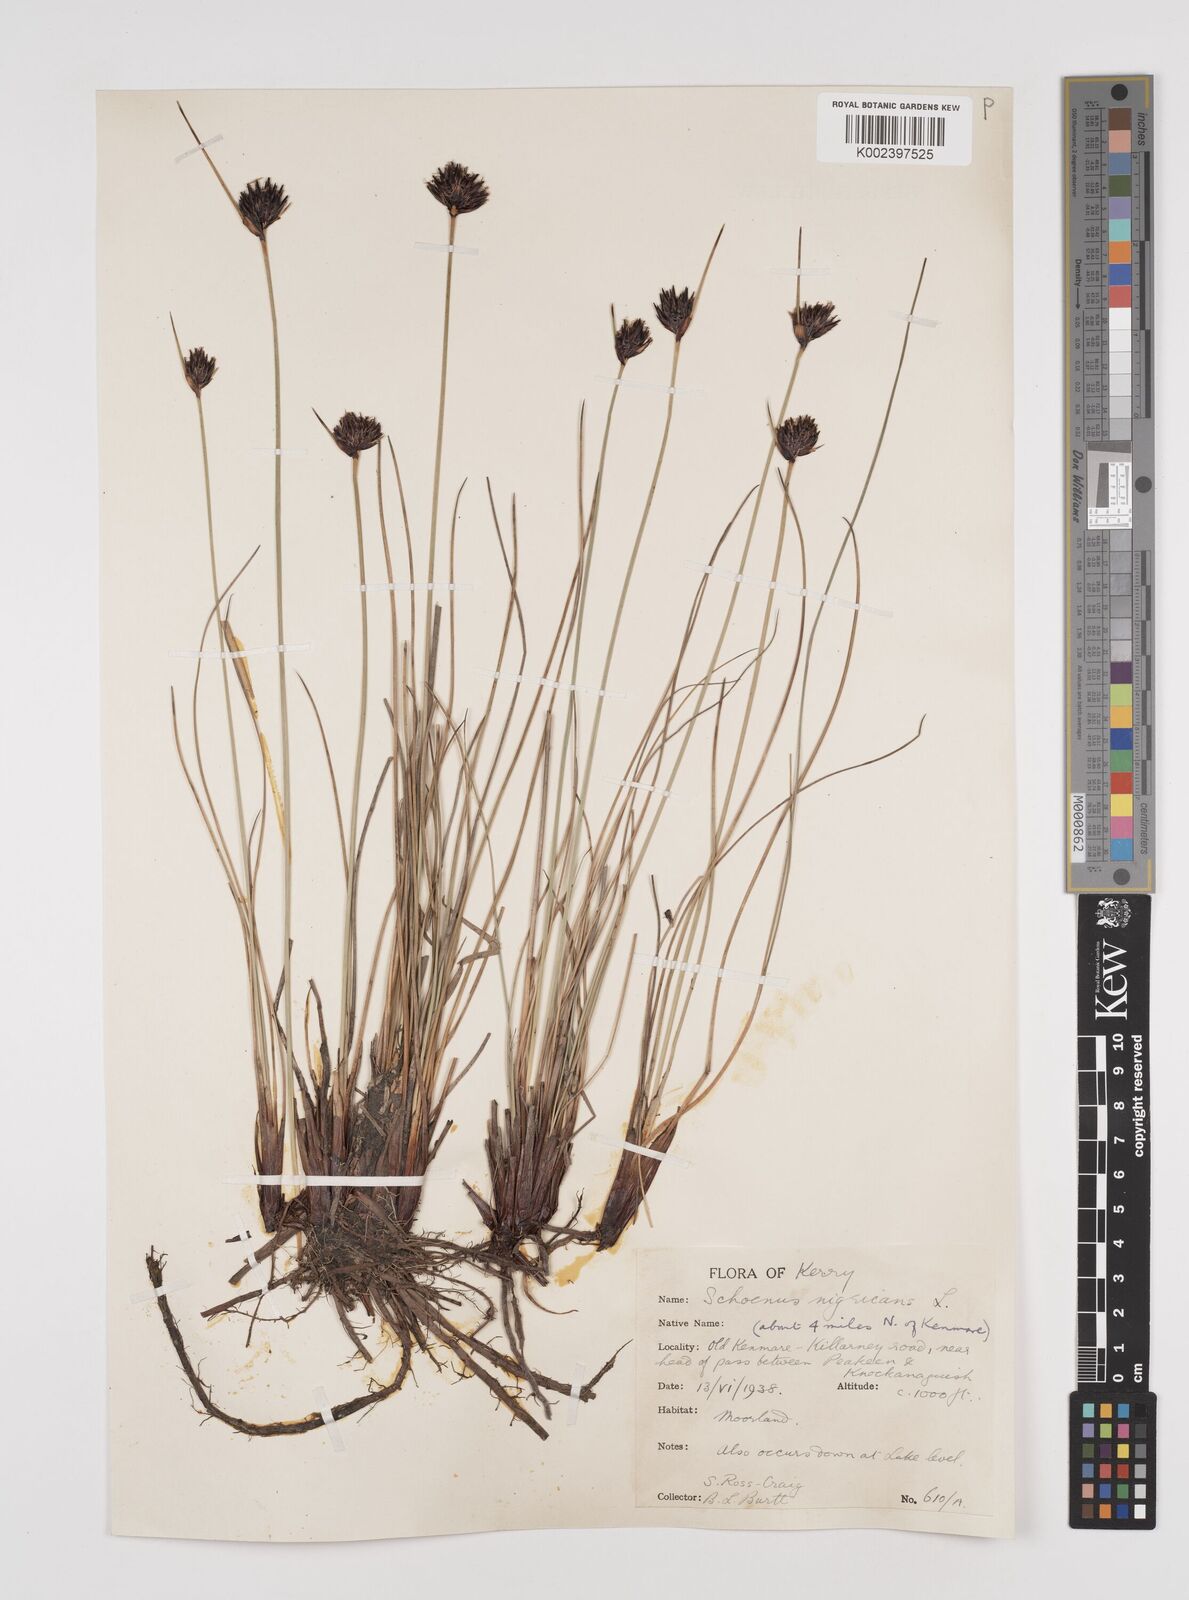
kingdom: Plantae
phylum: Tracheophyta
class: Liliopsida
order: Poales
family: Cyperaceae
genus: Schoenus
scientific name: Schoenus nigricans
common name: Black bog-rush
